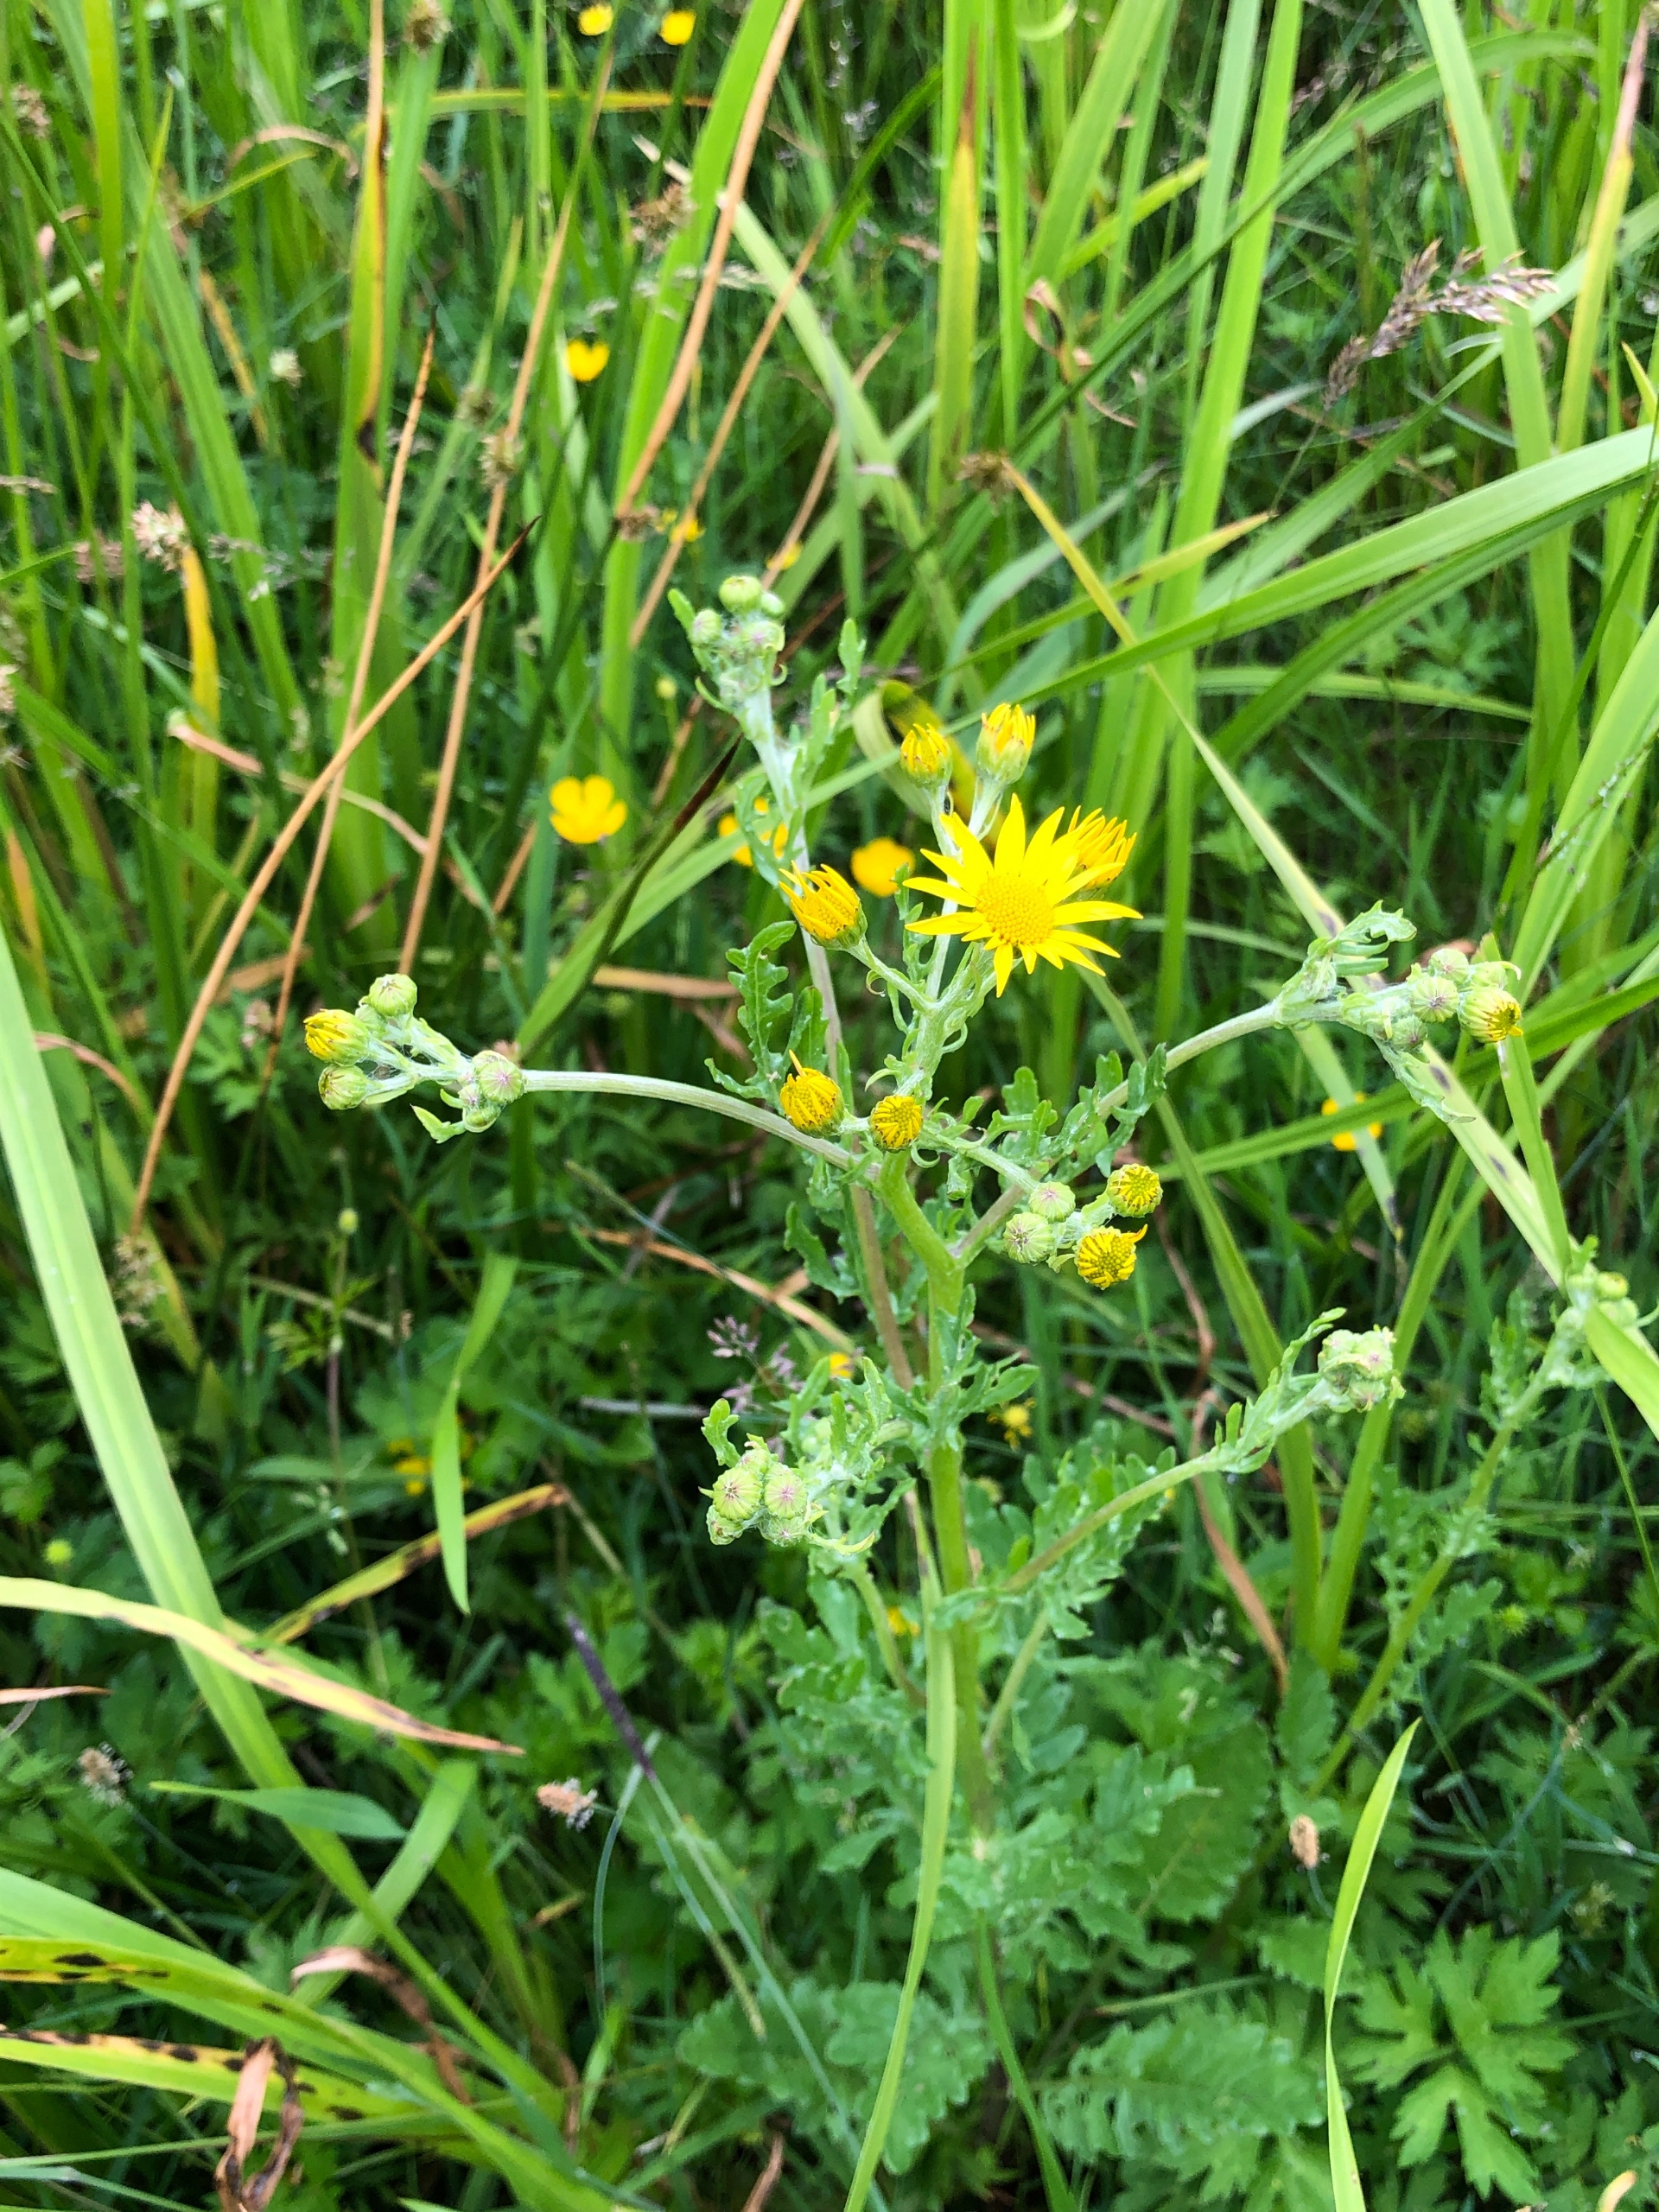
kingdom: Plantae
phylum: Tracheophyta
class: Magnoliopsida
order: Asterales
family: Asteraceae
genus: Jacobaea
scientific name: Jacobaea vulgaris
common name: Eng-brandbæger
